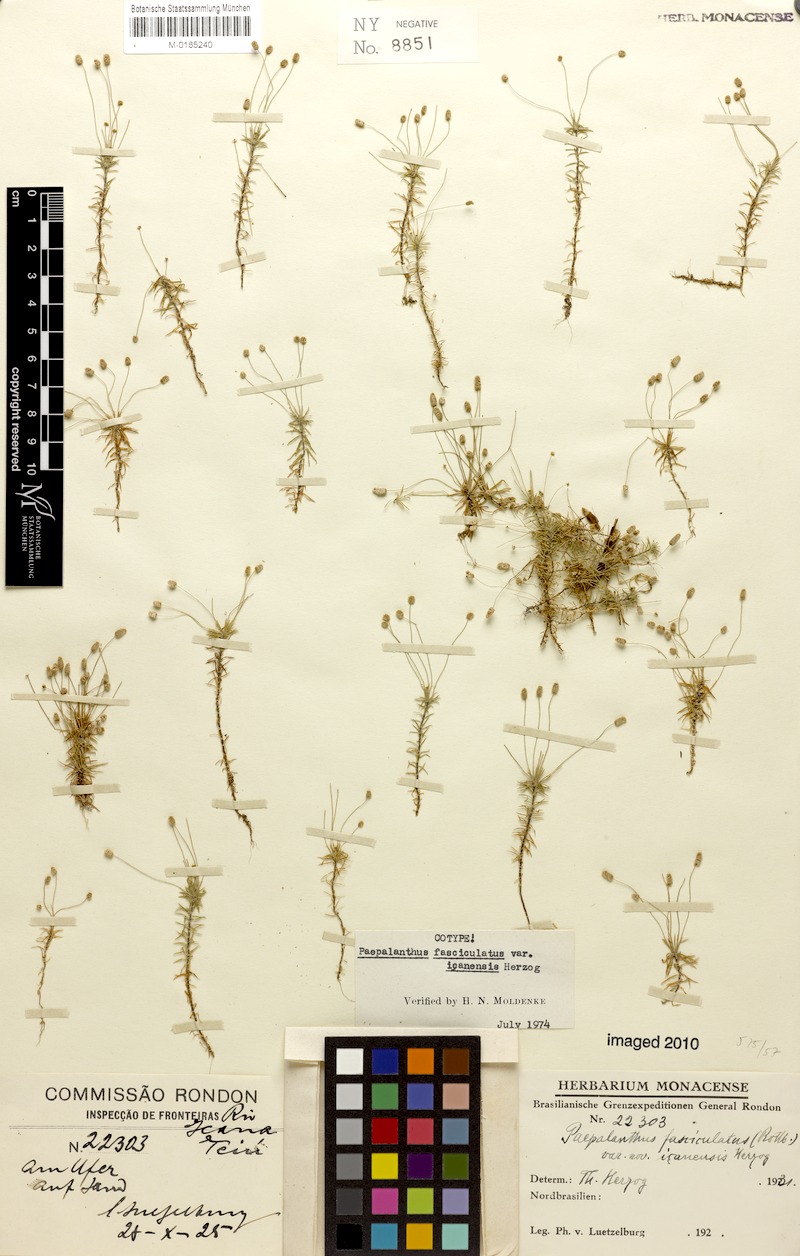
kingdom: Plantae
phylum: Tracheophyta
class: Liliopsida
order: Poales
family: Eriocaulaceae
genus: Paepalanthus
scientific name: Paepalanthus fasciculatus
